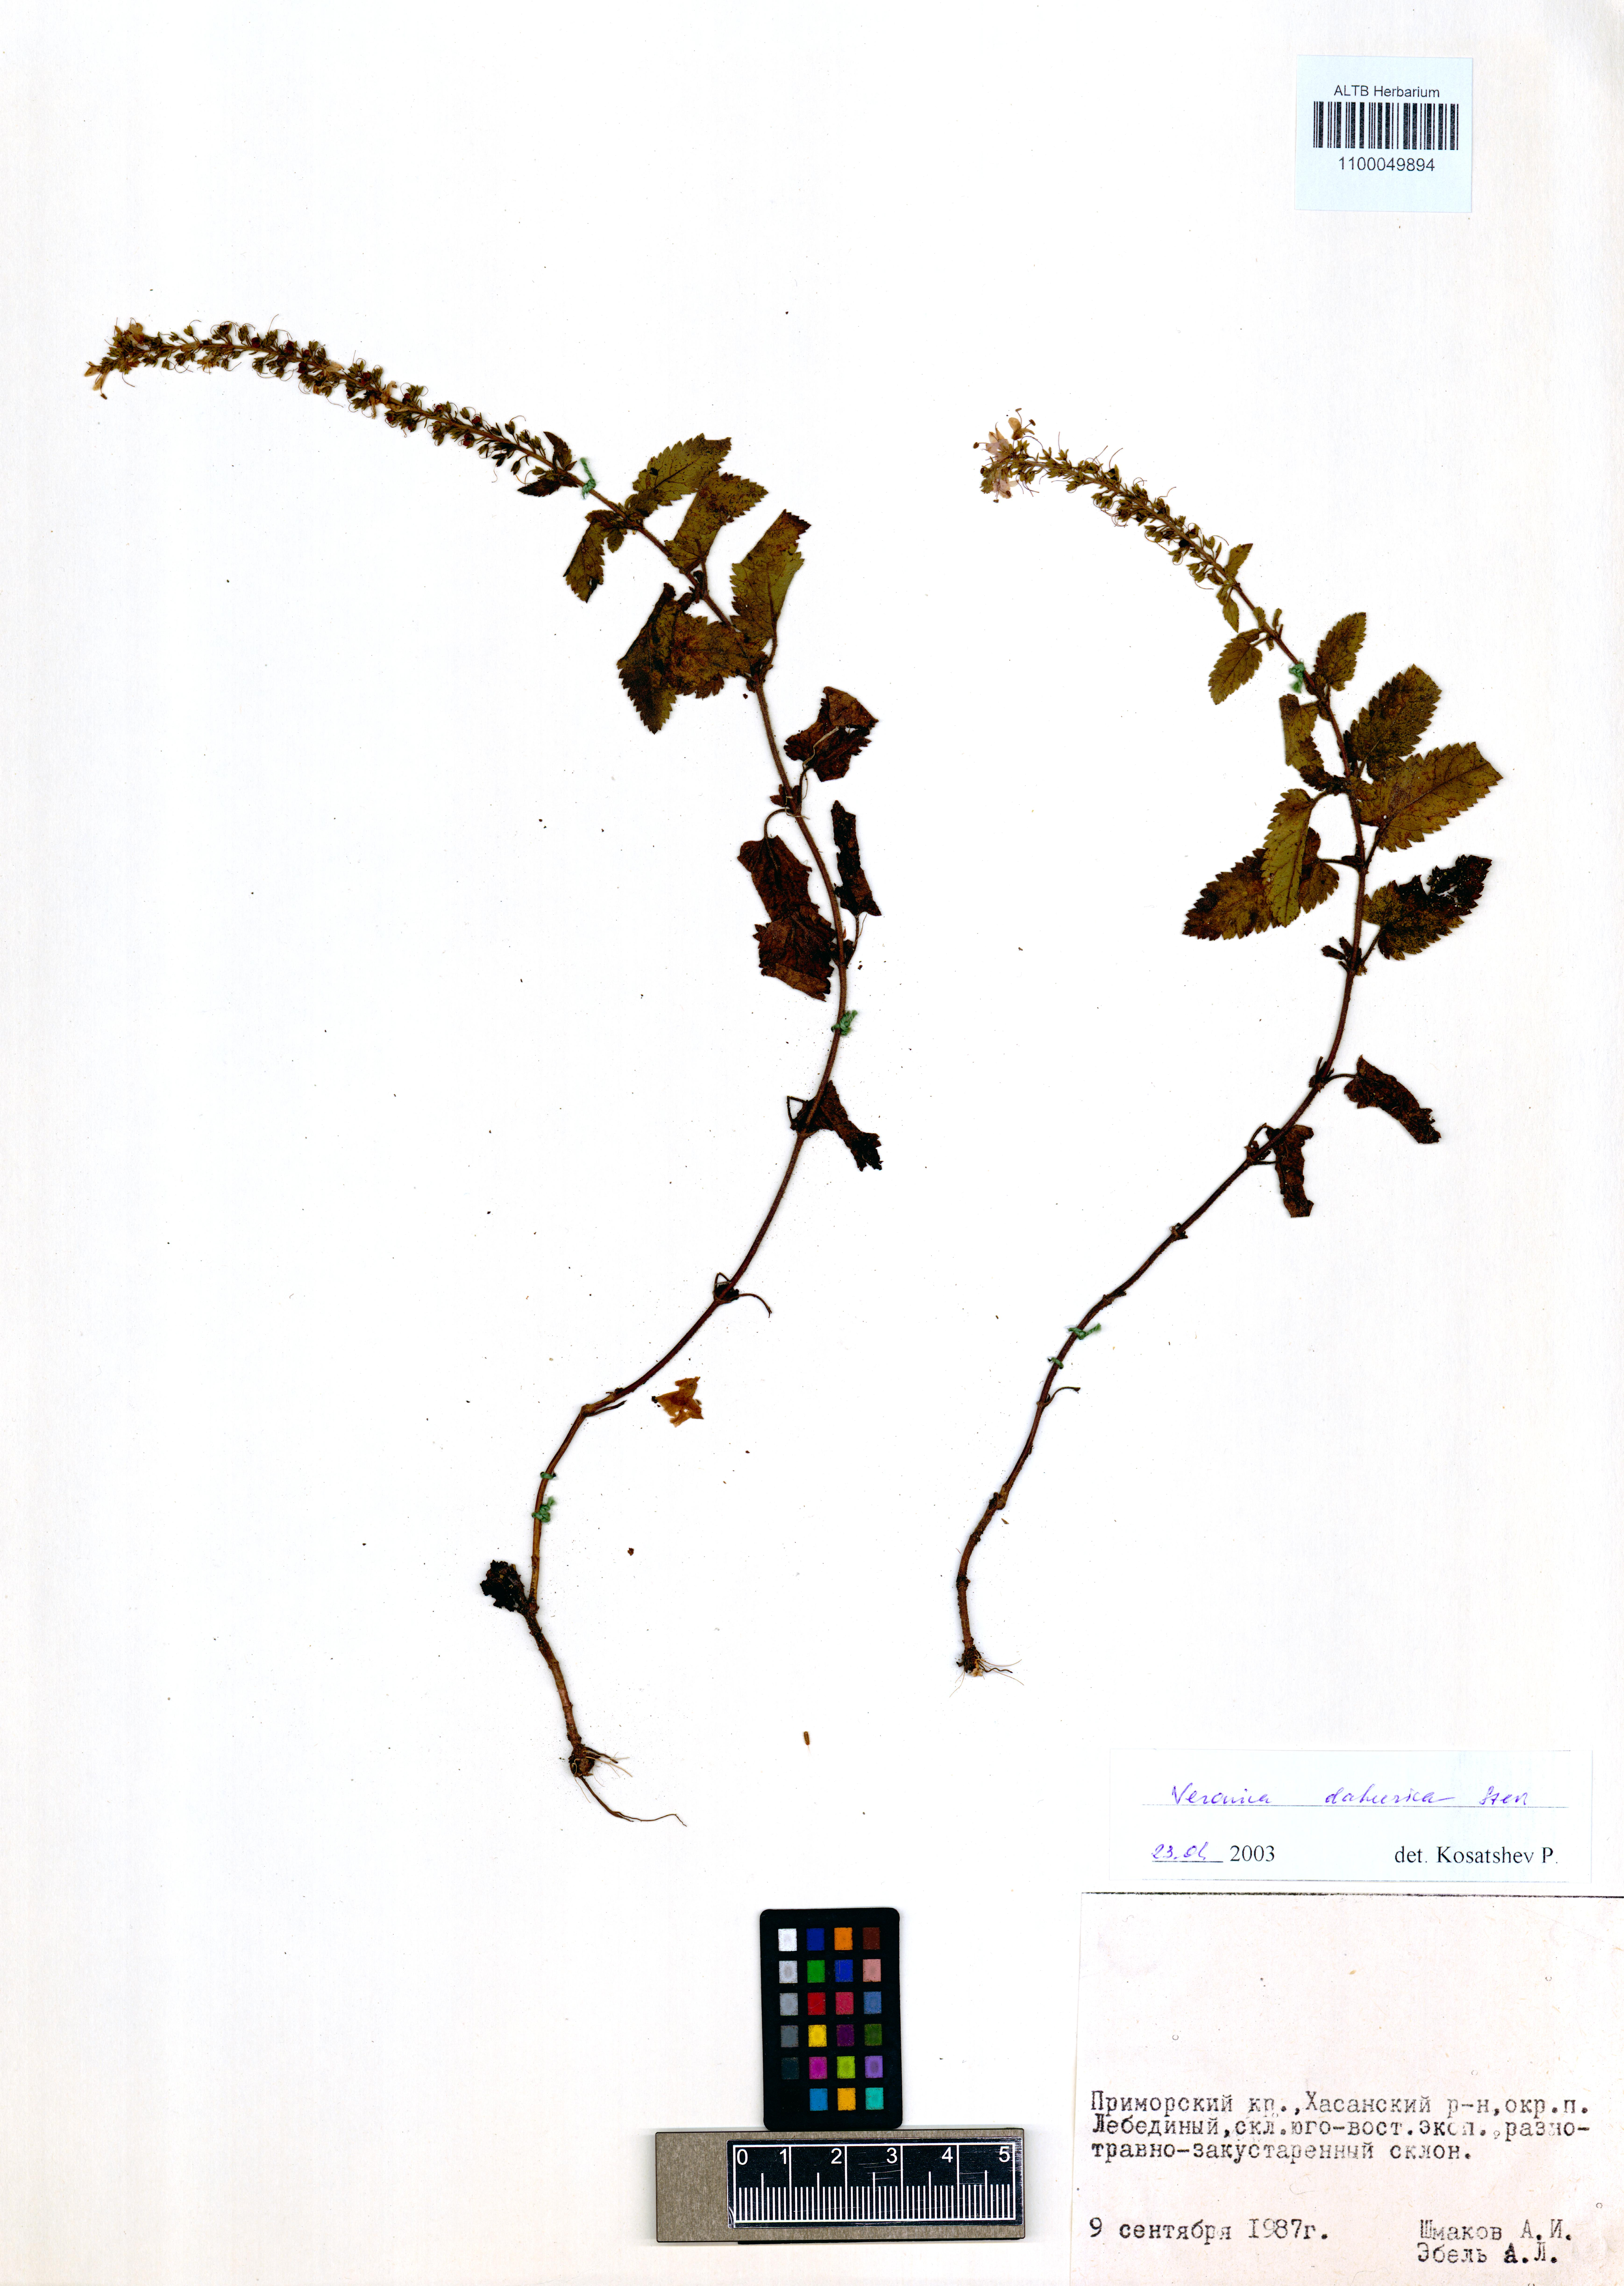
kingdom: Plantae
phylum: Tracheophyta
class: Magnoliopsida
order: Lamiales
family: Plantaginaceae
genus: Veronica
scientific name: Veronica daurica
